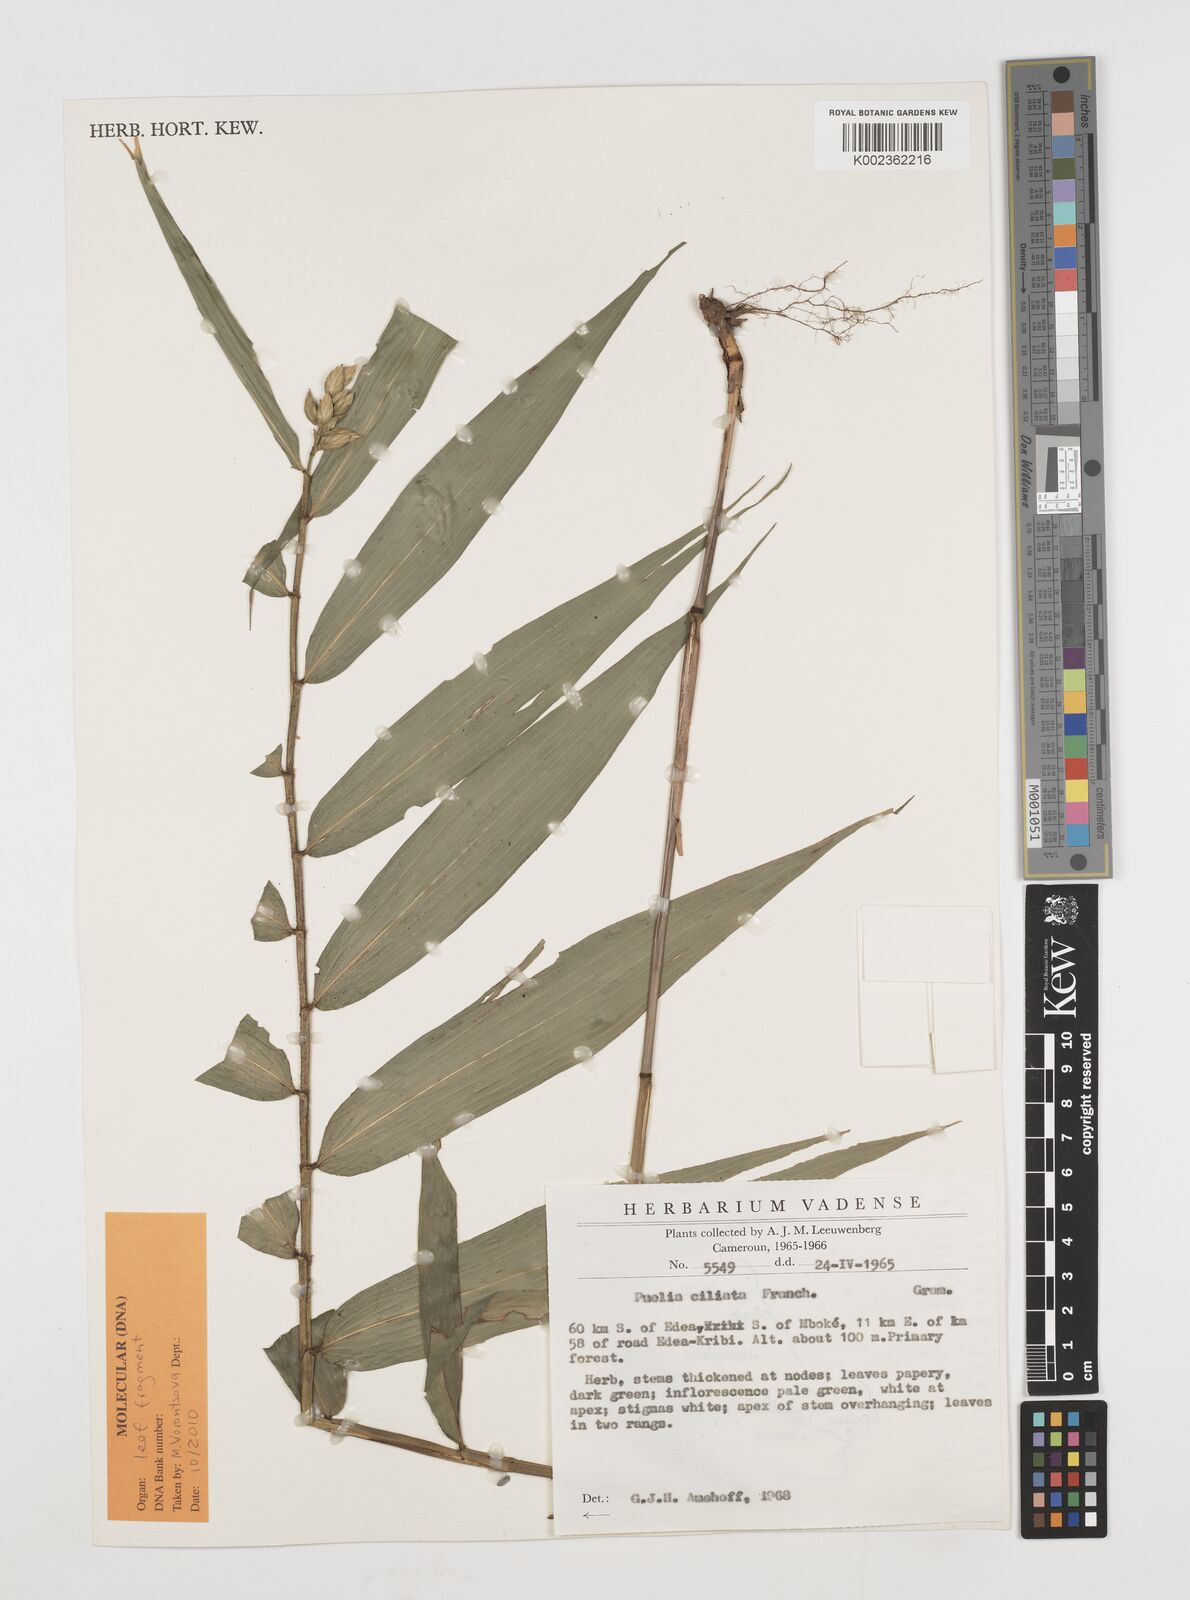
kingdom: Plantae
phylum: Tracheophyta
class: Liliopsida
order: Poales
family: Poaceae
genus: Puelia
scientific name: Puelia ciliata
